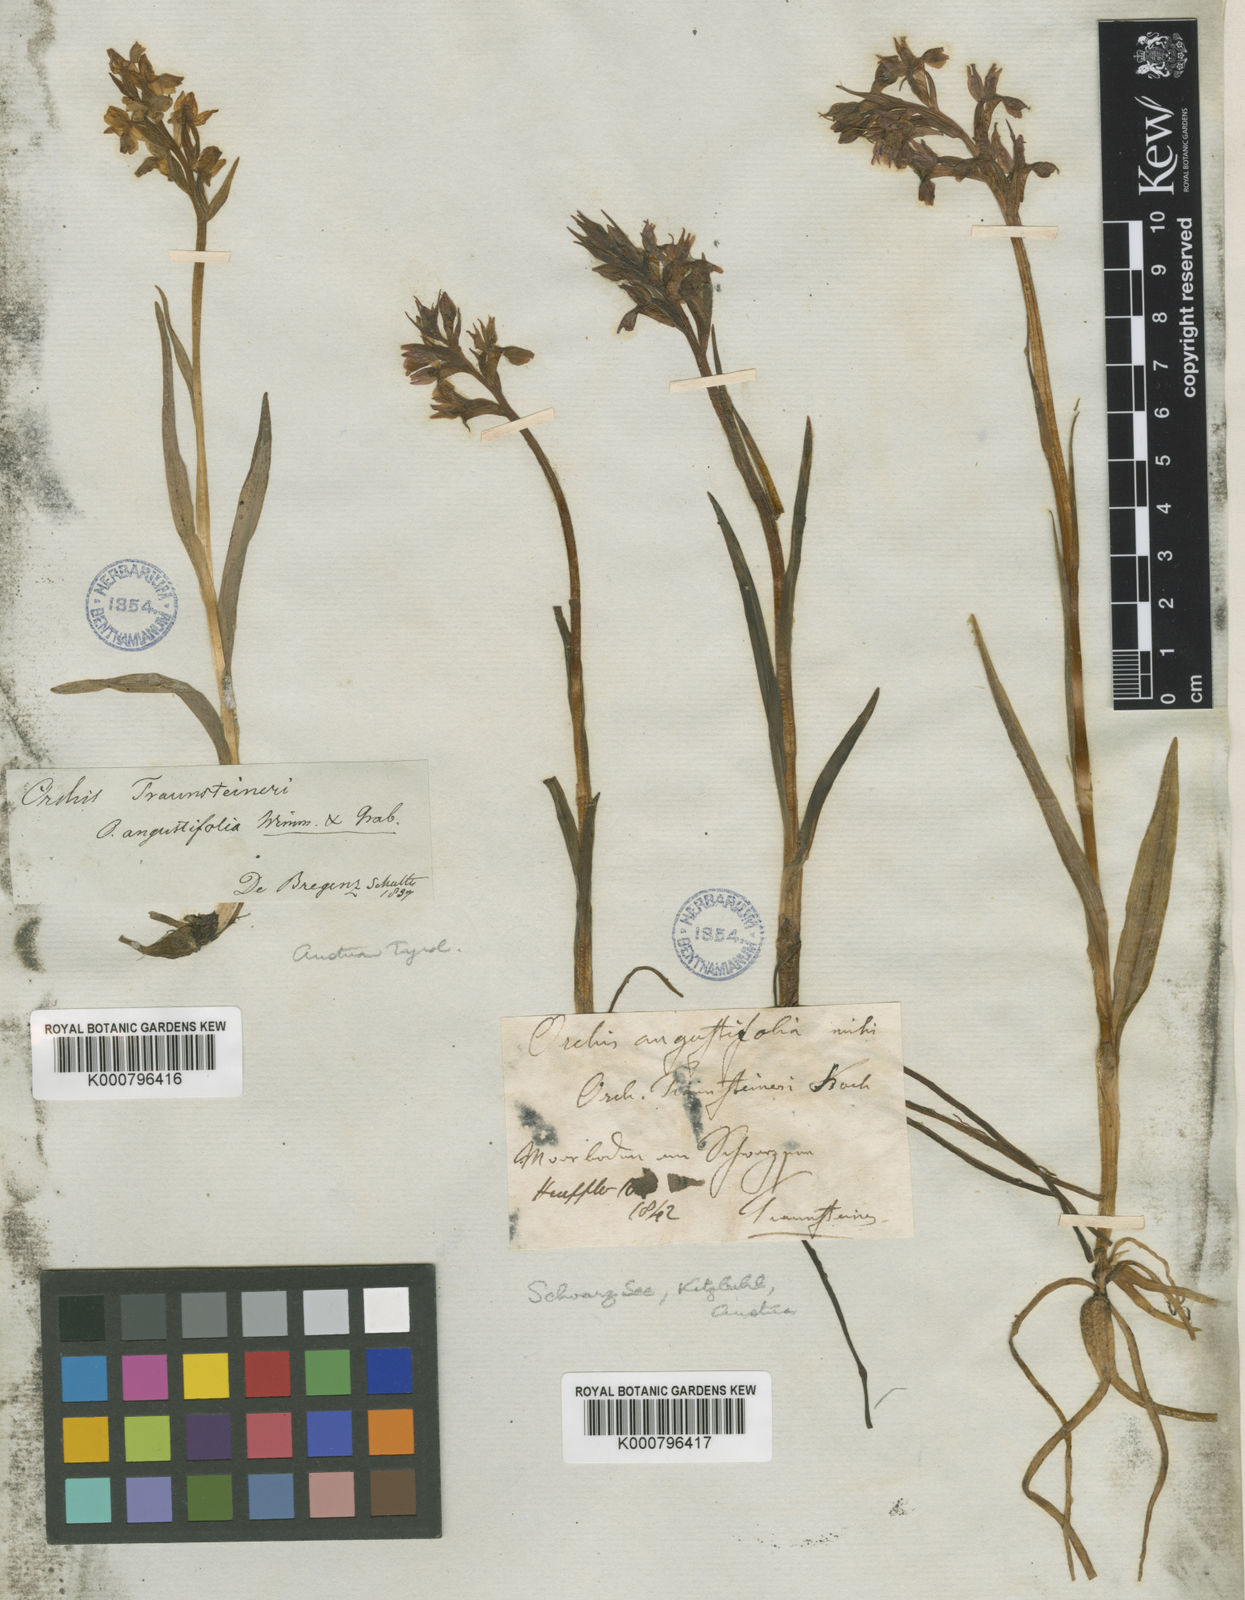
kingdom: Plantae
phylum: Tracheophyta
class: Liliopsida
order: Asparagales
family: Orchidaceae
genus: Dactylorhiza
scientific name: Dactylorhiza
